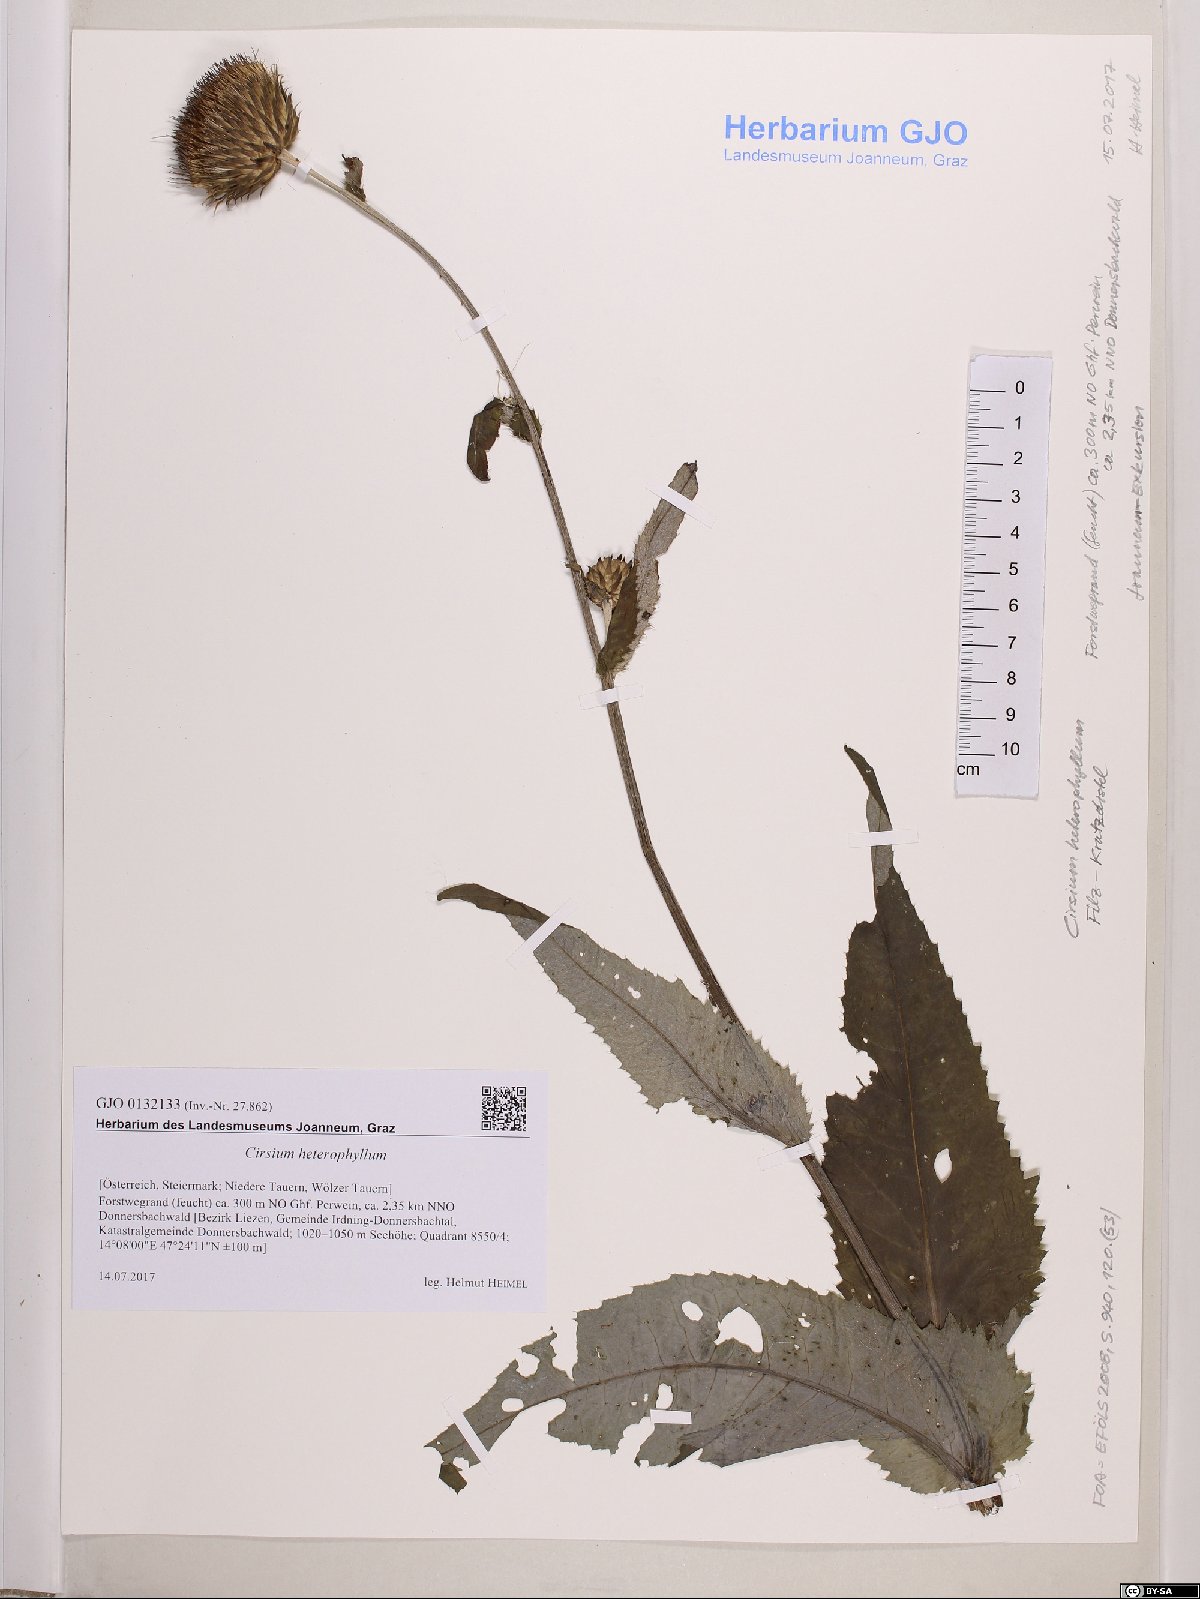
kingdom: Plantae
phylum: Tracheophyta
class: Magnoliopsida
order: Asterales
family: Asteraceae
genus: Cirsium
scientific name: Cirsium heterophyllum
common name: Melancholy thistle
